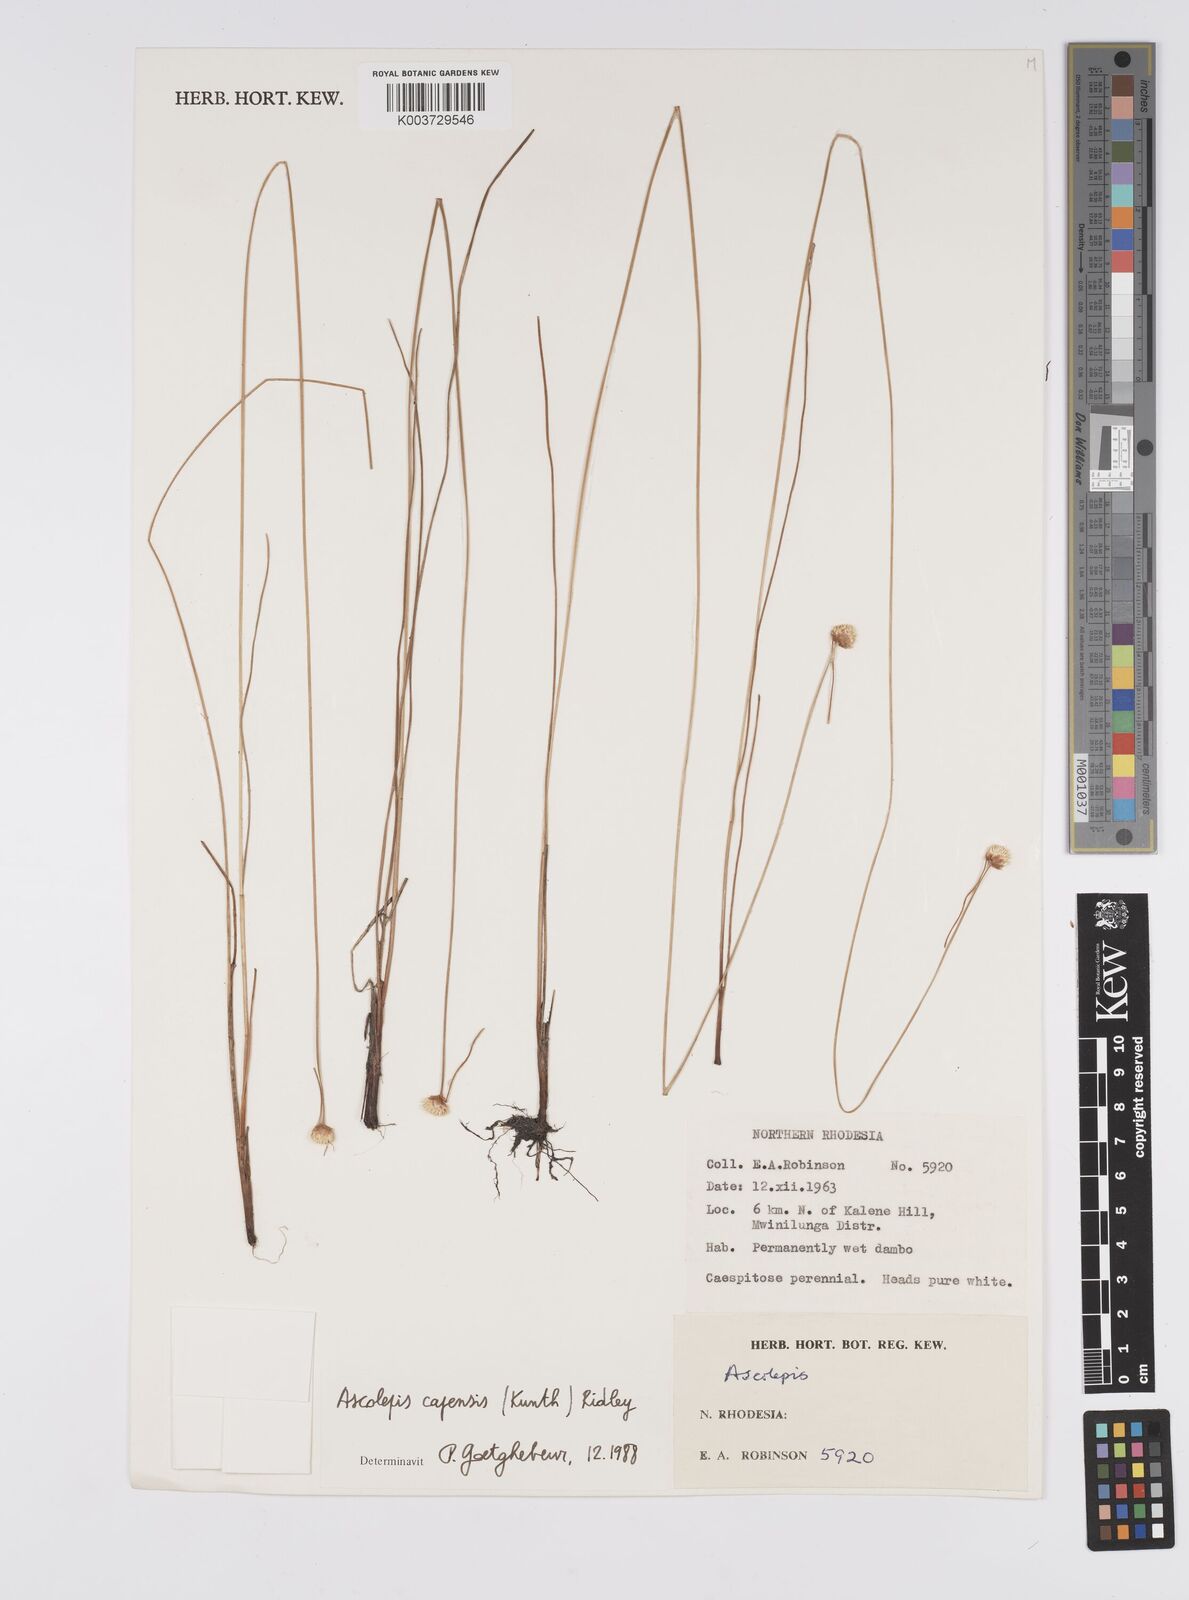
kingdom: Plantae
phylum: Tracheophyta
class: Liliopsida
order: Poales
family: Cyperaceae
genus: Cyperus
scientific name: Cyperus ascocapensis
